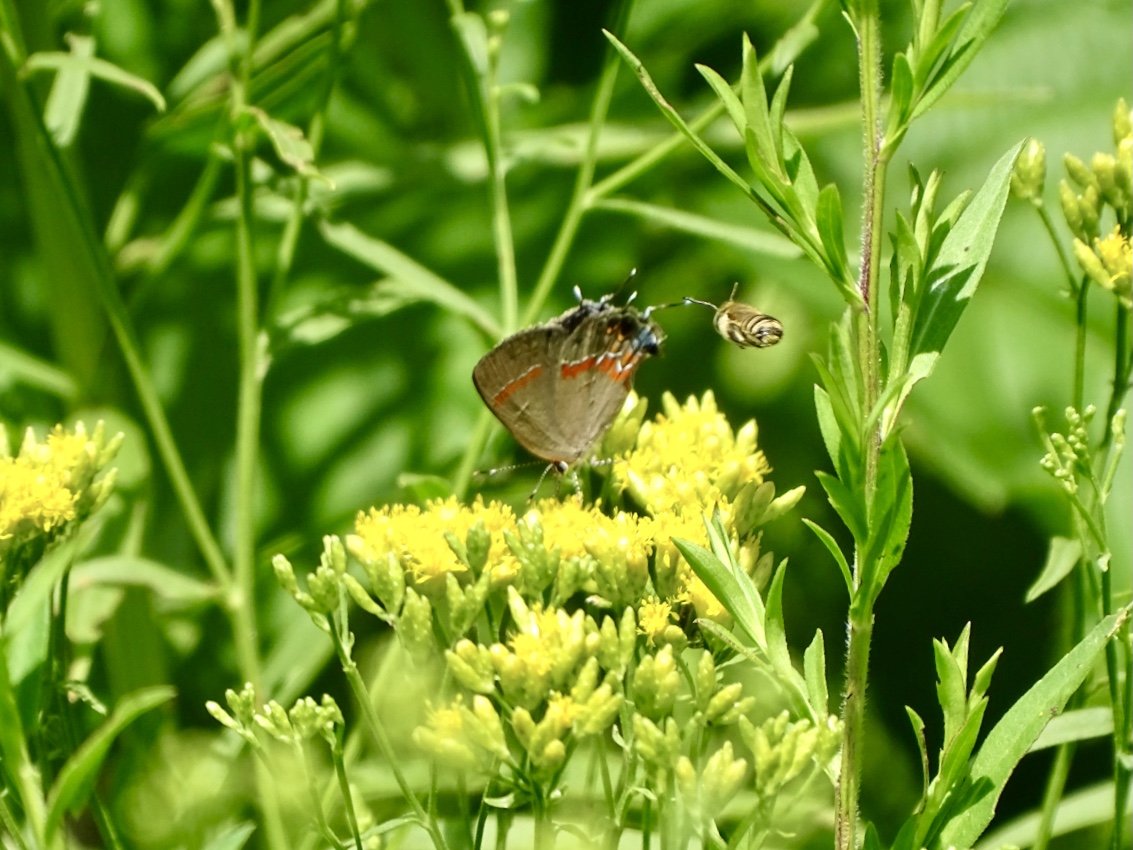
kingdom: Animalia
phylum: Arthropoda
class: Insecta
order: Lepidoptera
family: Lycaenidae
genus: Calycopis
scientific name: Calycopis cecrops
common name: Red-banded Hairstreak
